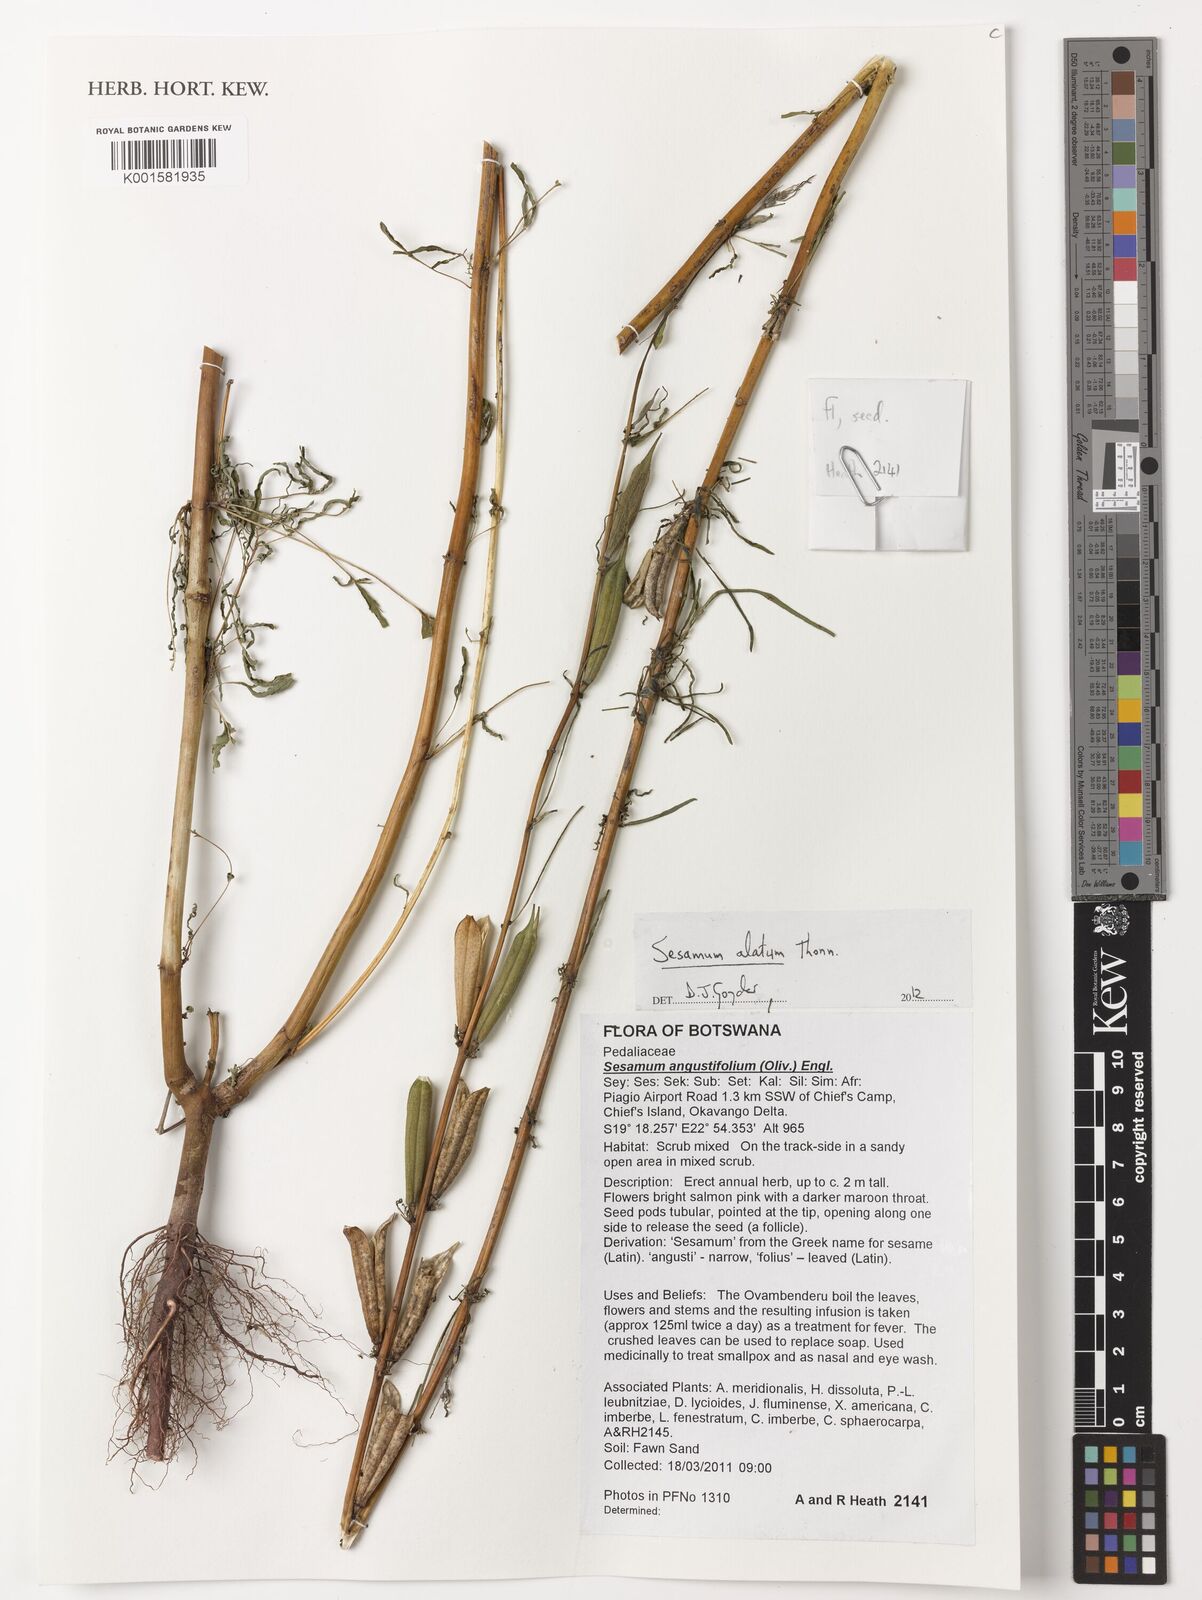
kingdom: Plantae
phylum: Tracheophyta
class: Magnoliopsida
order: Lamiales
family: Pedaliaceae
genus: Sesamum
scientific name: Sesamum alatum
